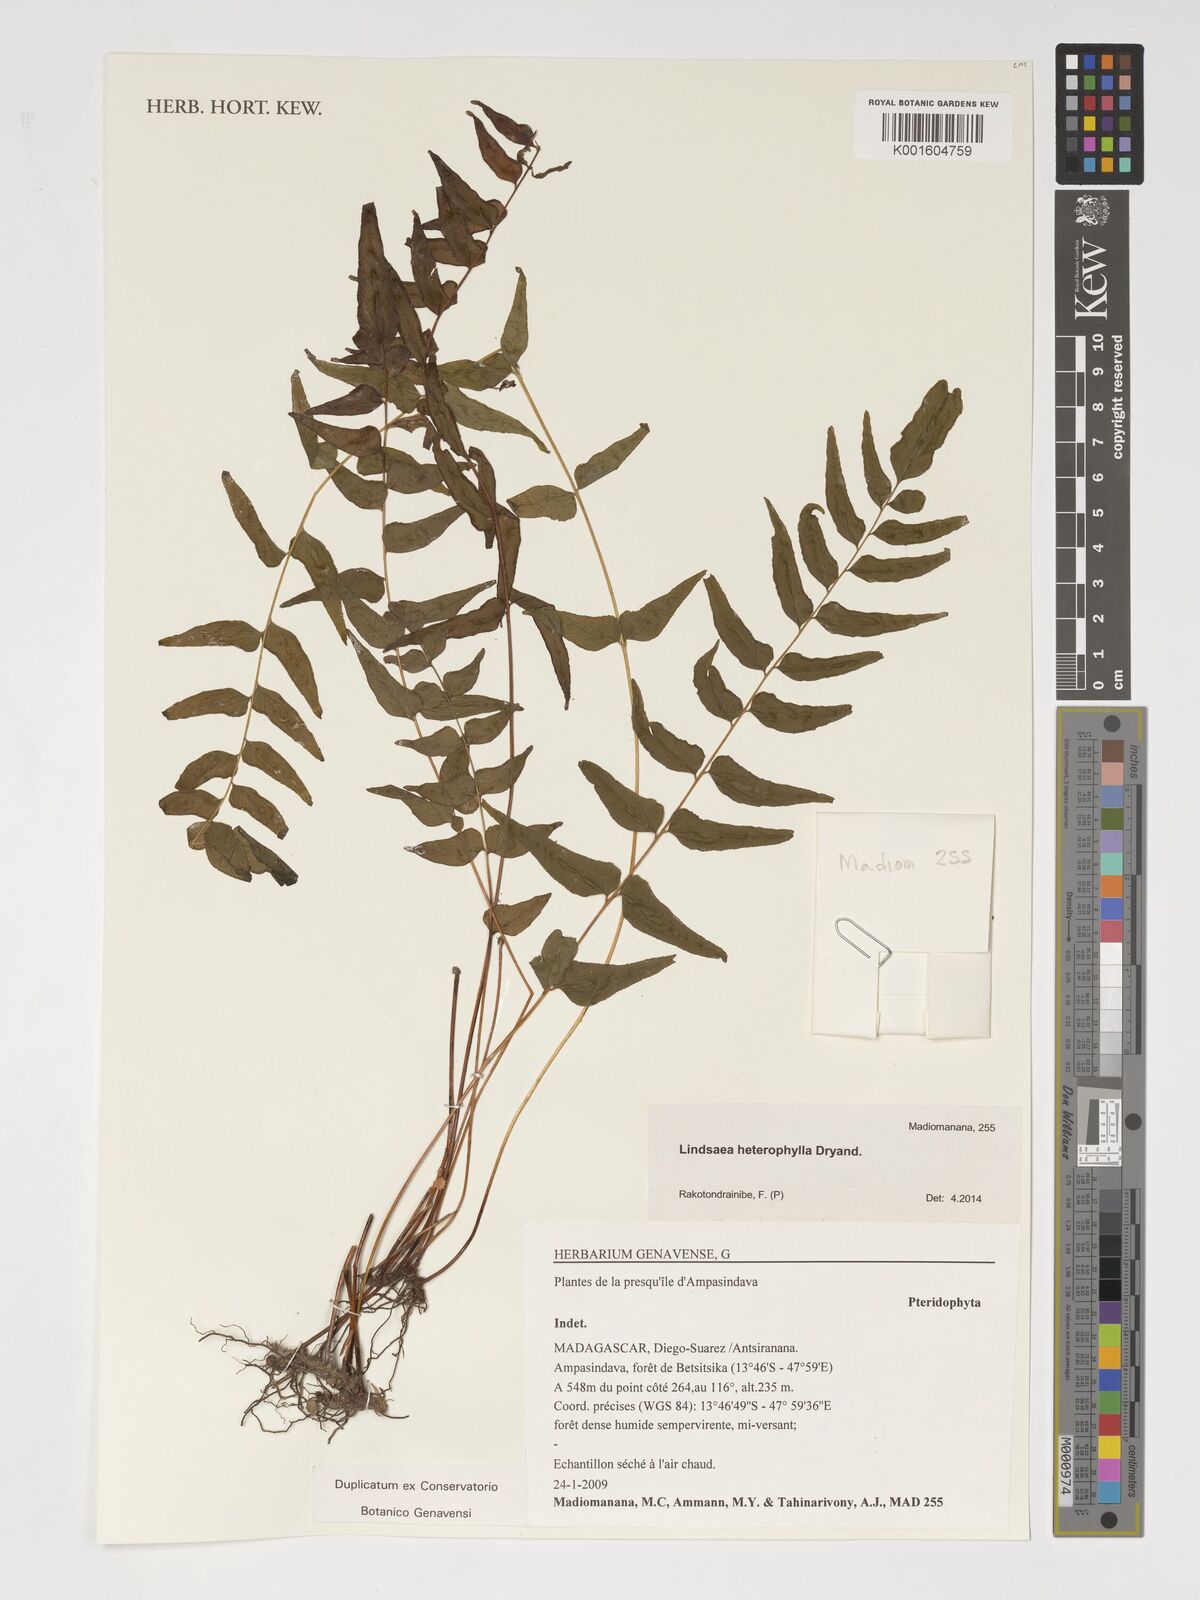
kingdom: Plantae
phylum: Tracheophyta
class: Polypodiopsida
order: Polypodiales
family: Lindsaeaceae
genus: Lindsaea
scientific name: Lindsaea heterophylla
